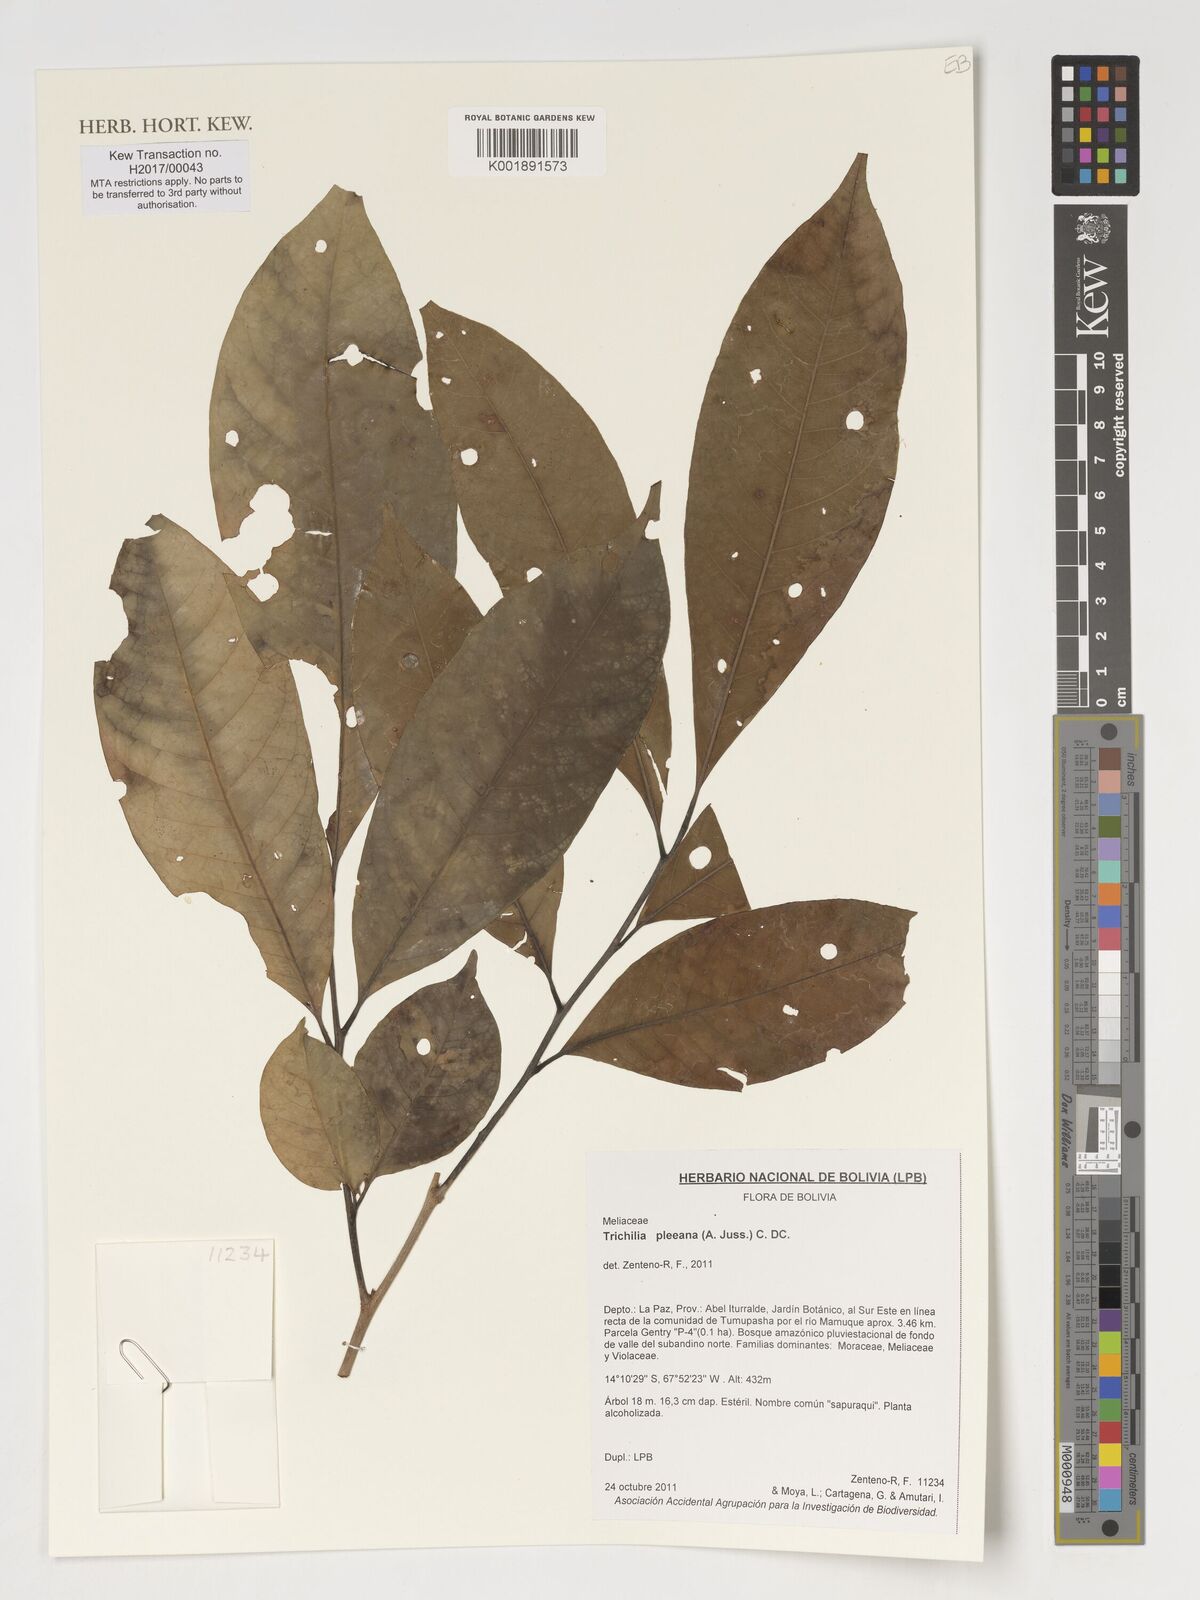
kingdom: Plantae
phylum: Tracheophyta
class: Magnoliopsida
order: Sapindales
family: Meliaceae
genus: Trichilia
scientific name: Trichilia pleeana
